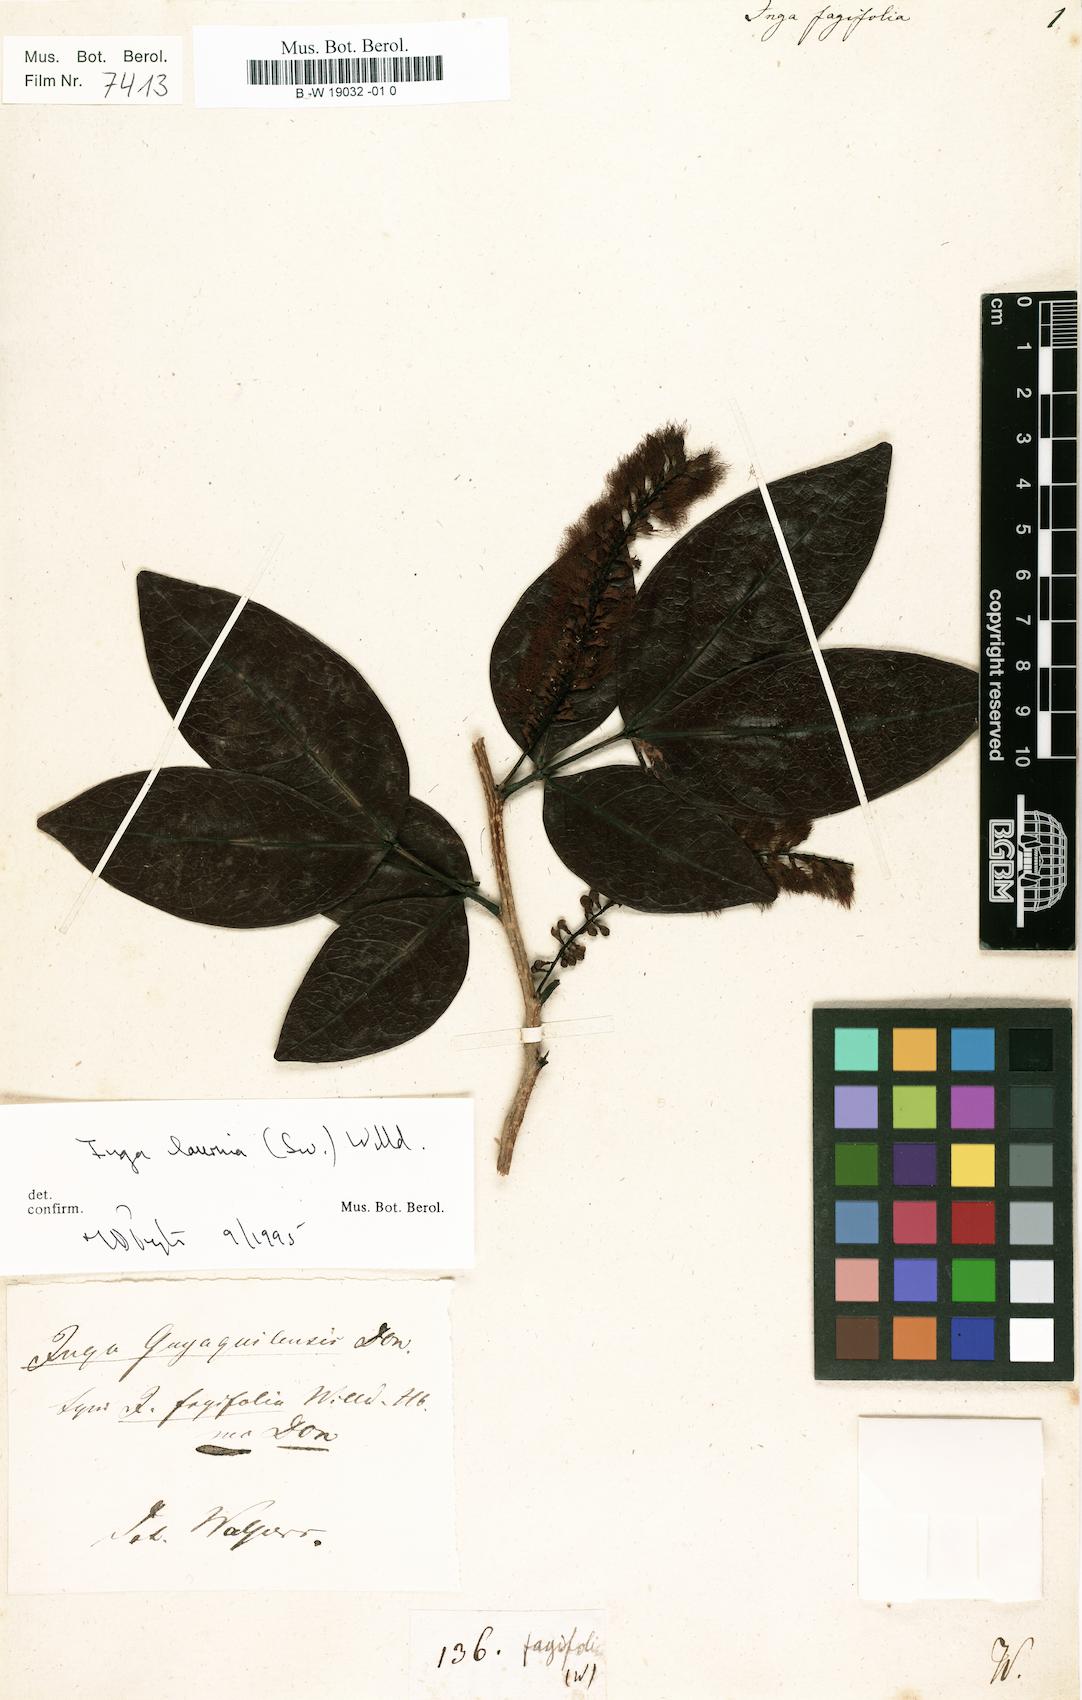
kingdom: Plantae
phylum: Tracheophyta
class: Magnoliopsida
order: Fabales
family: Fabaceae
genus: Inga
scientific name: Inga
